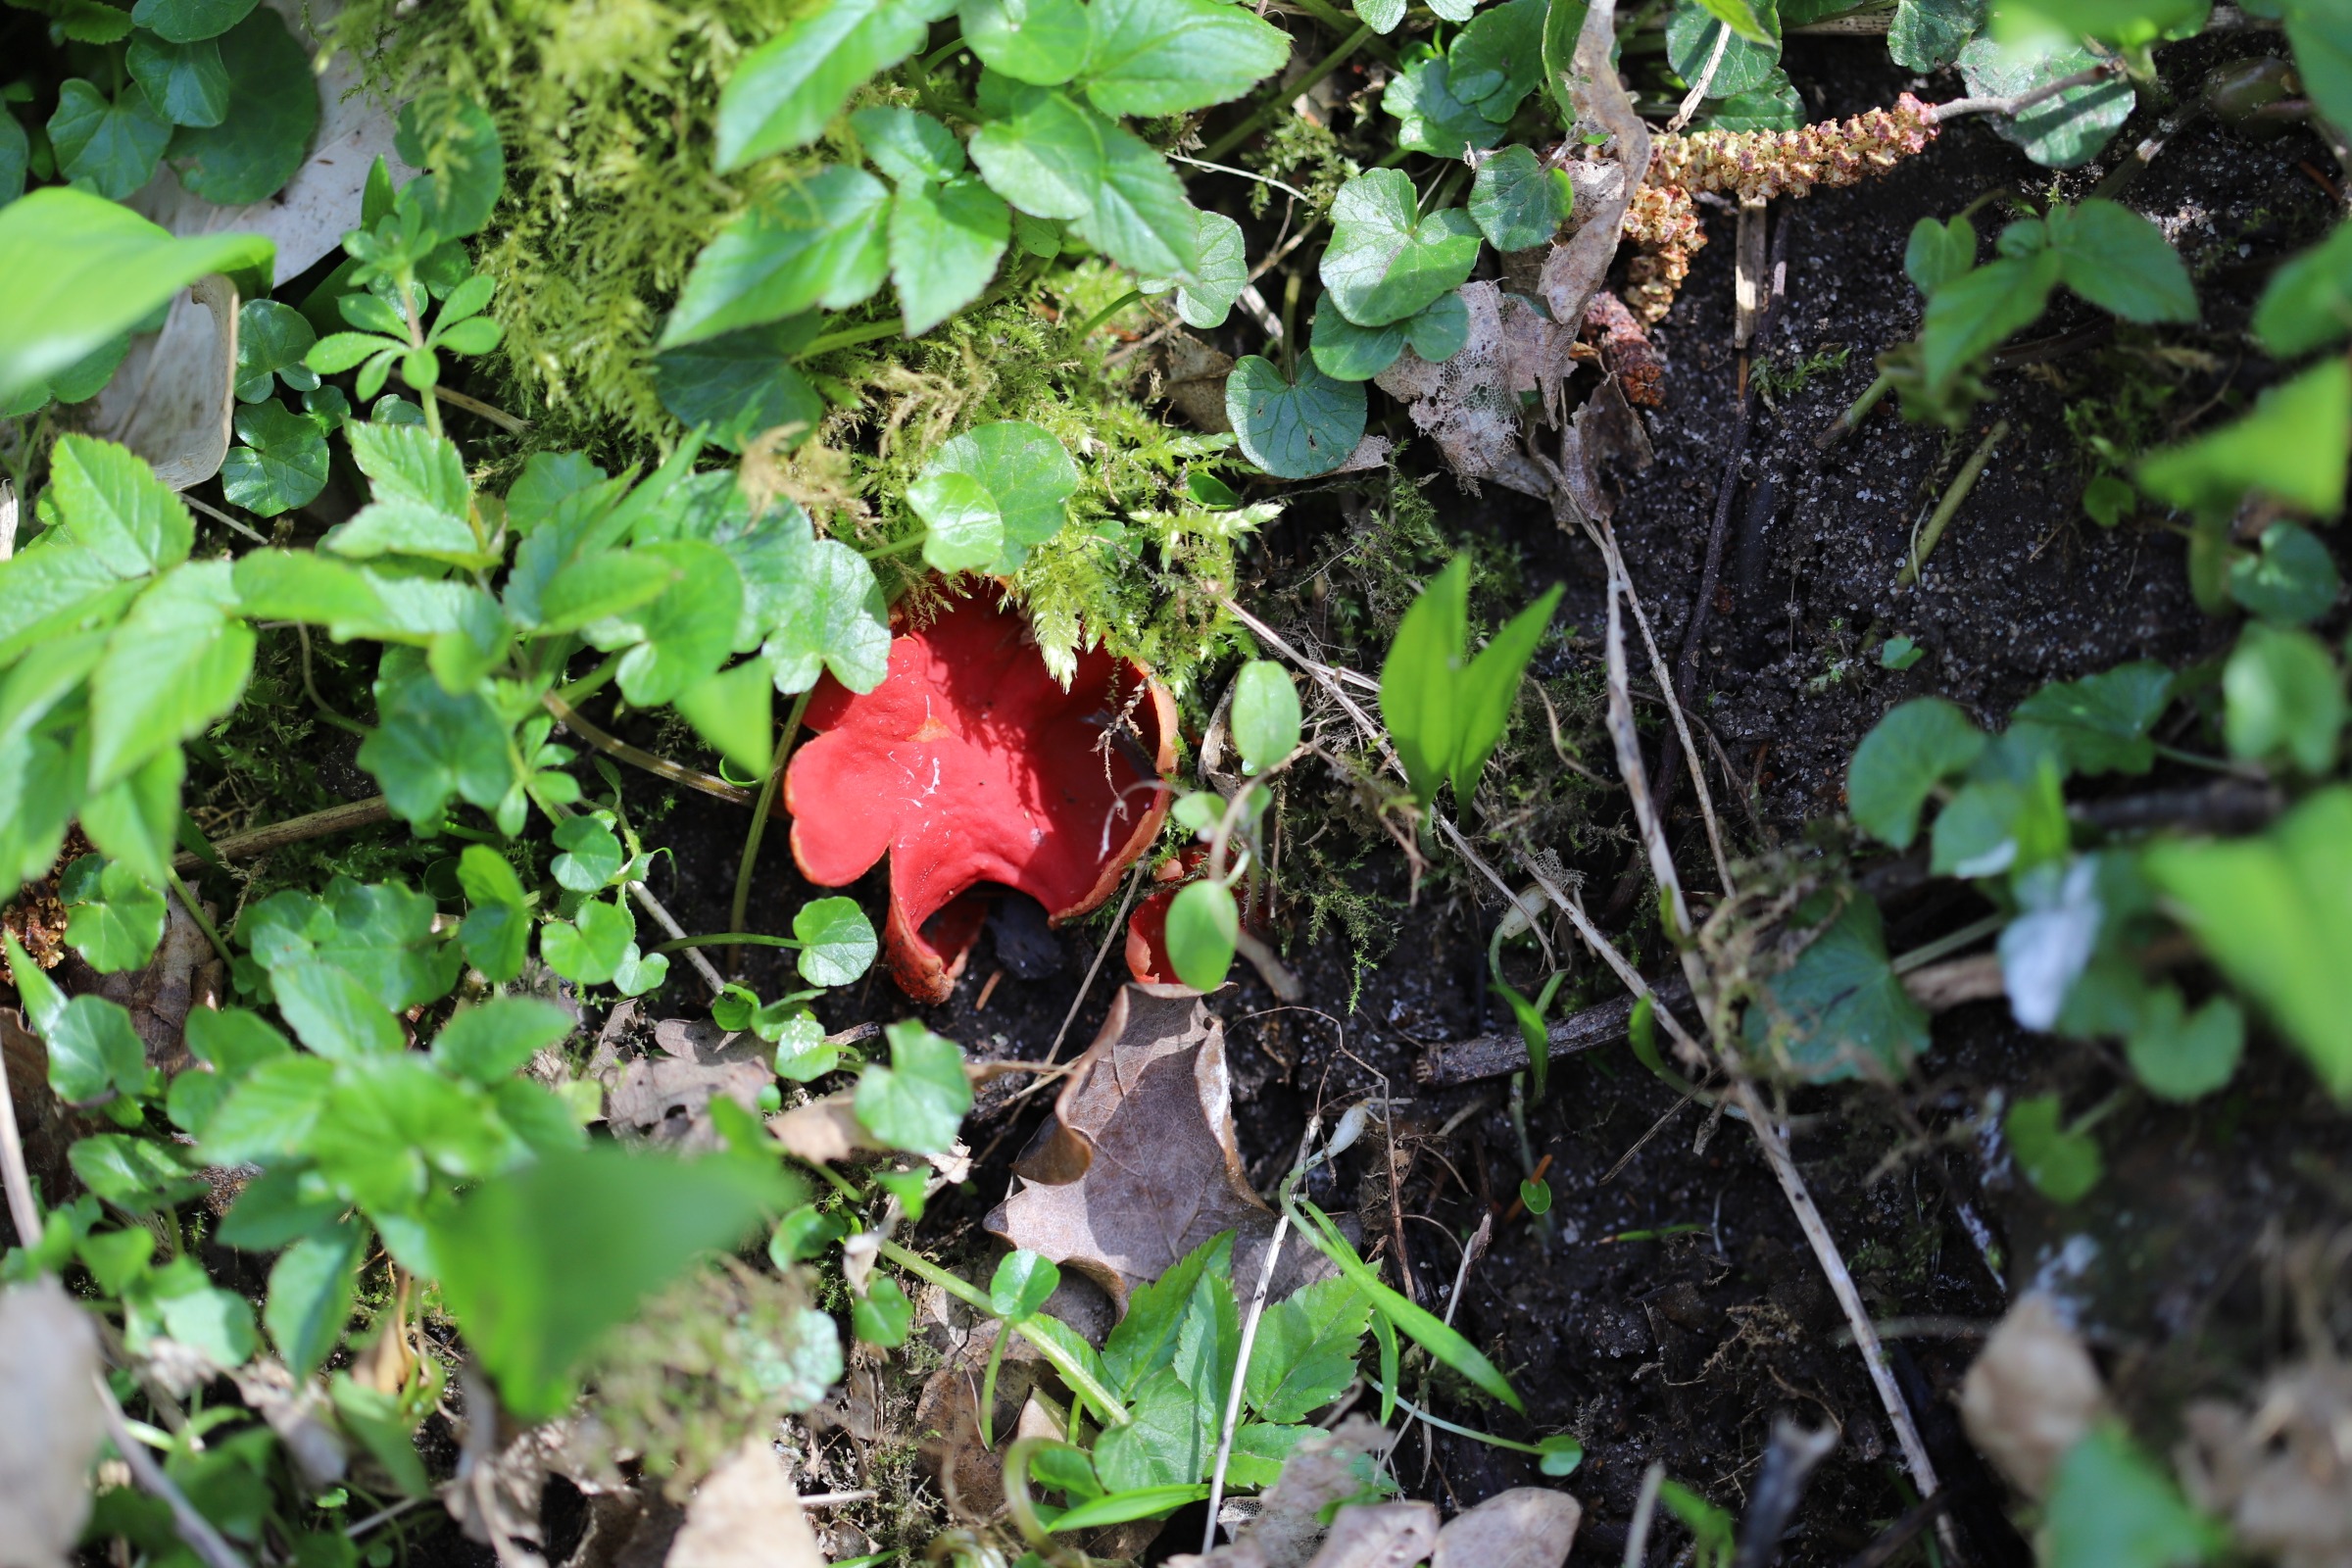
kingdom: Fungi
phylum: Ascomycota
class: Pezizomycetes
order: Pezizales
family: Sarcoscyphaceae
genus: Sarcoscypha
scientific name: Sarcoscypha
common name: Pragtbæger
